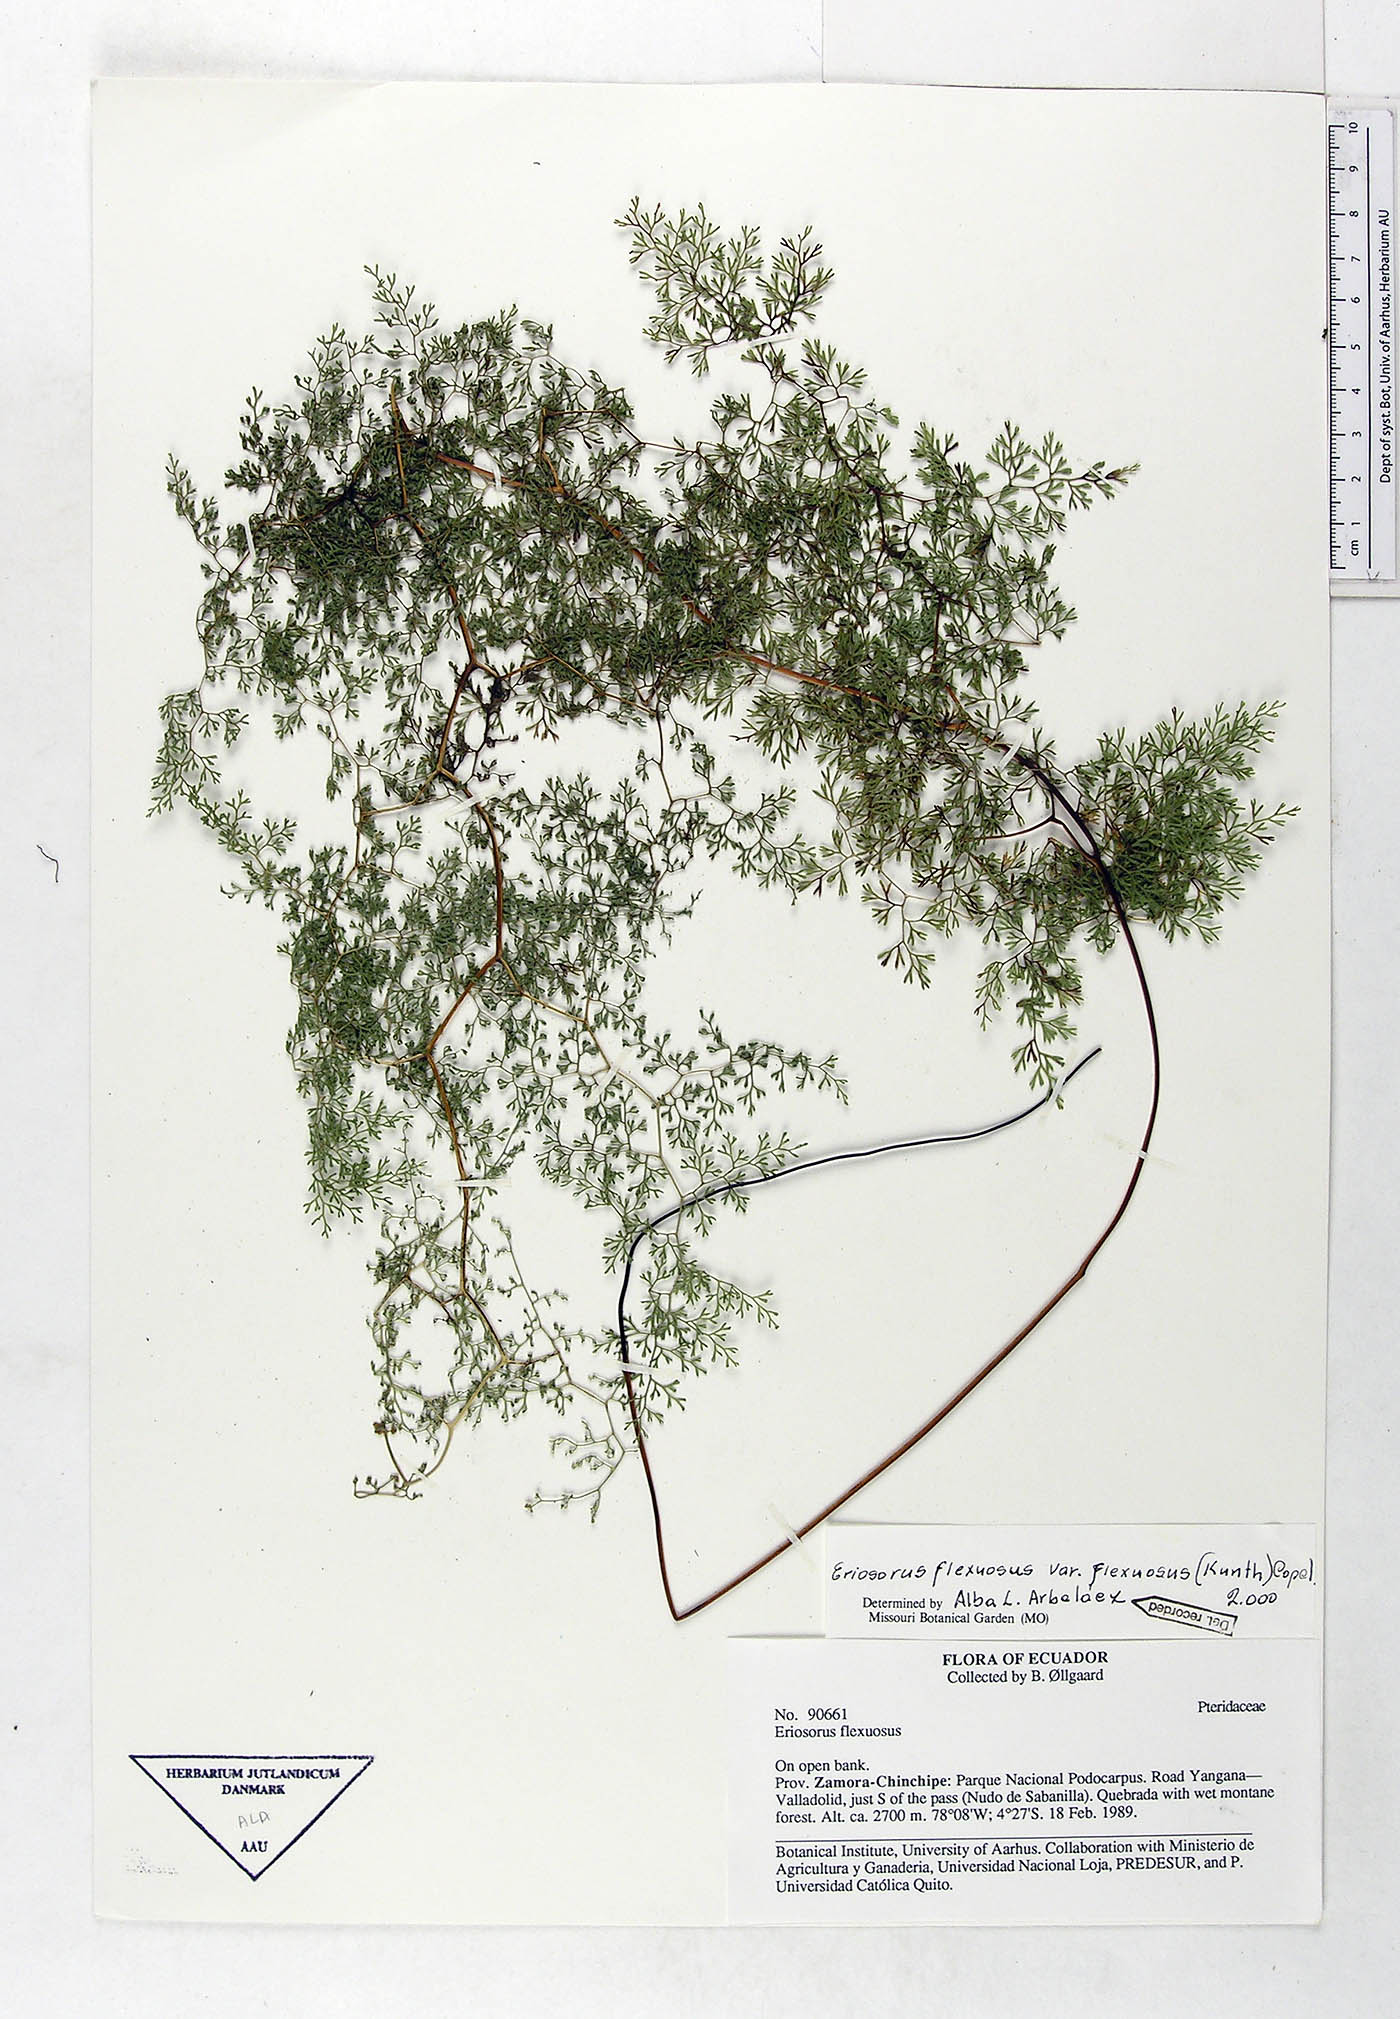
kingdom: Plantae
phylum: Tracheophyta
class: Polypodiopsida
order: Polypodiales
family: Pteridaceae
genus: Jamesonia
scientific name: Jamesonia flexuosa
